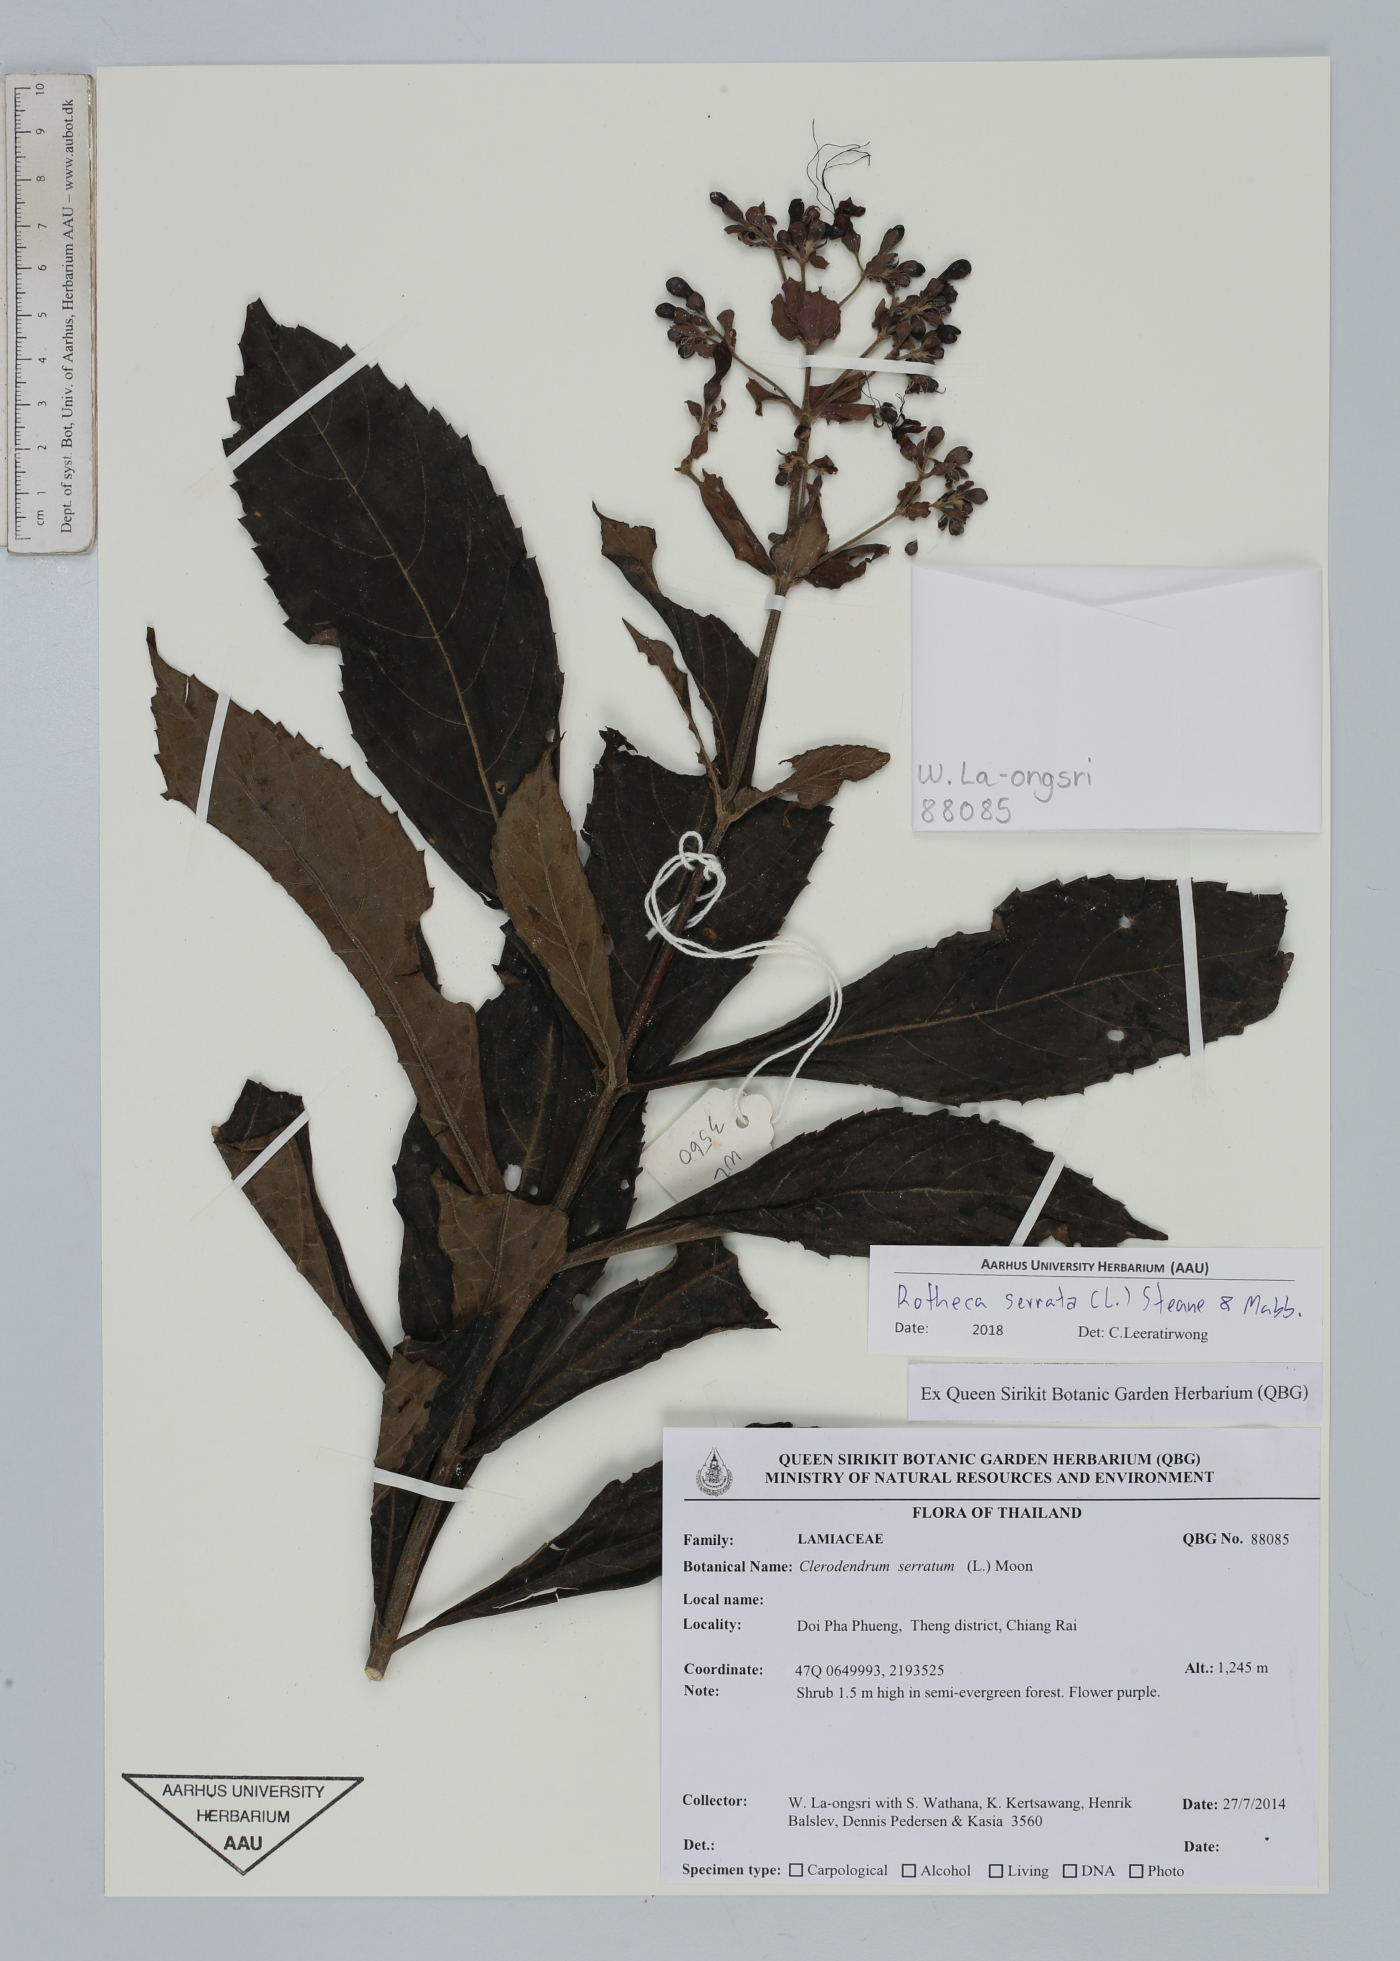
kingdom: Plantae
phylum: Tracheophyta
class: Magnoliopsida
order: Lamiales
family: Lamiaceae
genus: Rotheca
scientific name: Rotheca serrata
